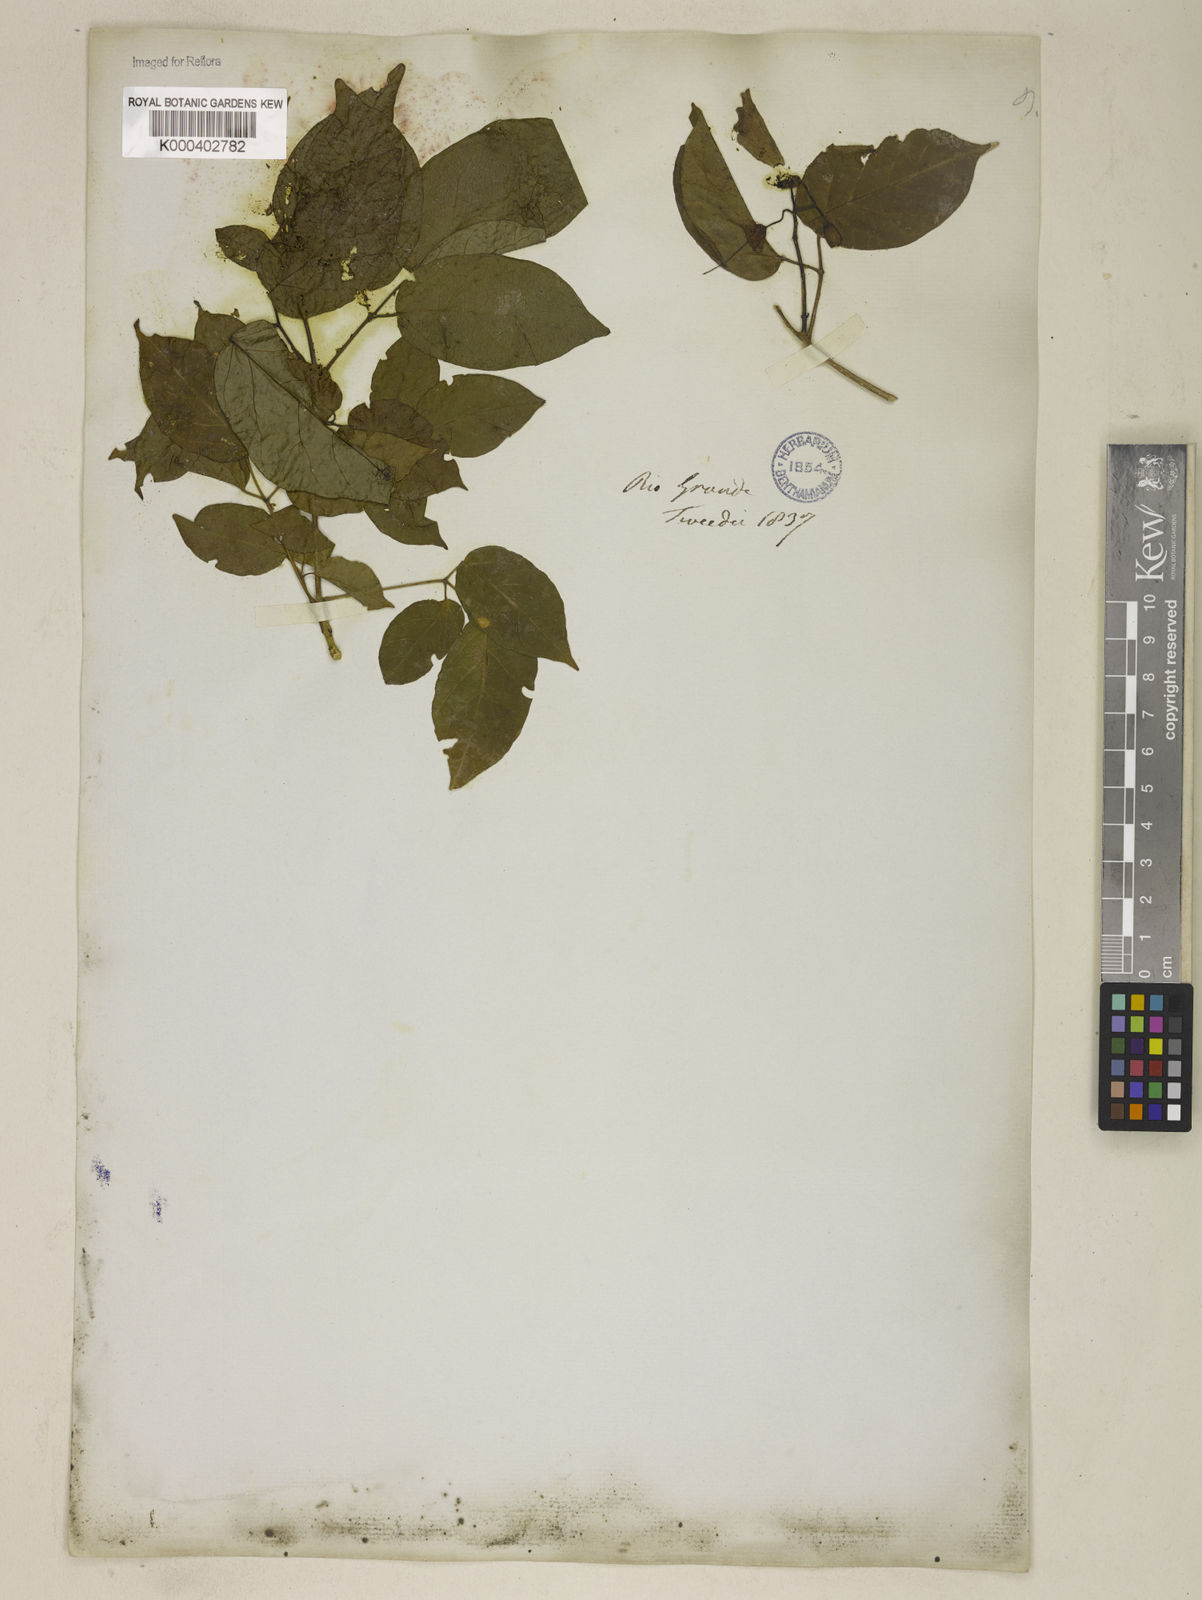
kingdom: Plantae
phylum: Tracheophyta
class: Magnoliopsida
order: Lamiales
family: Bignoniaceae
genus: Tanaecium
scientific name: Tanaecium selloi
